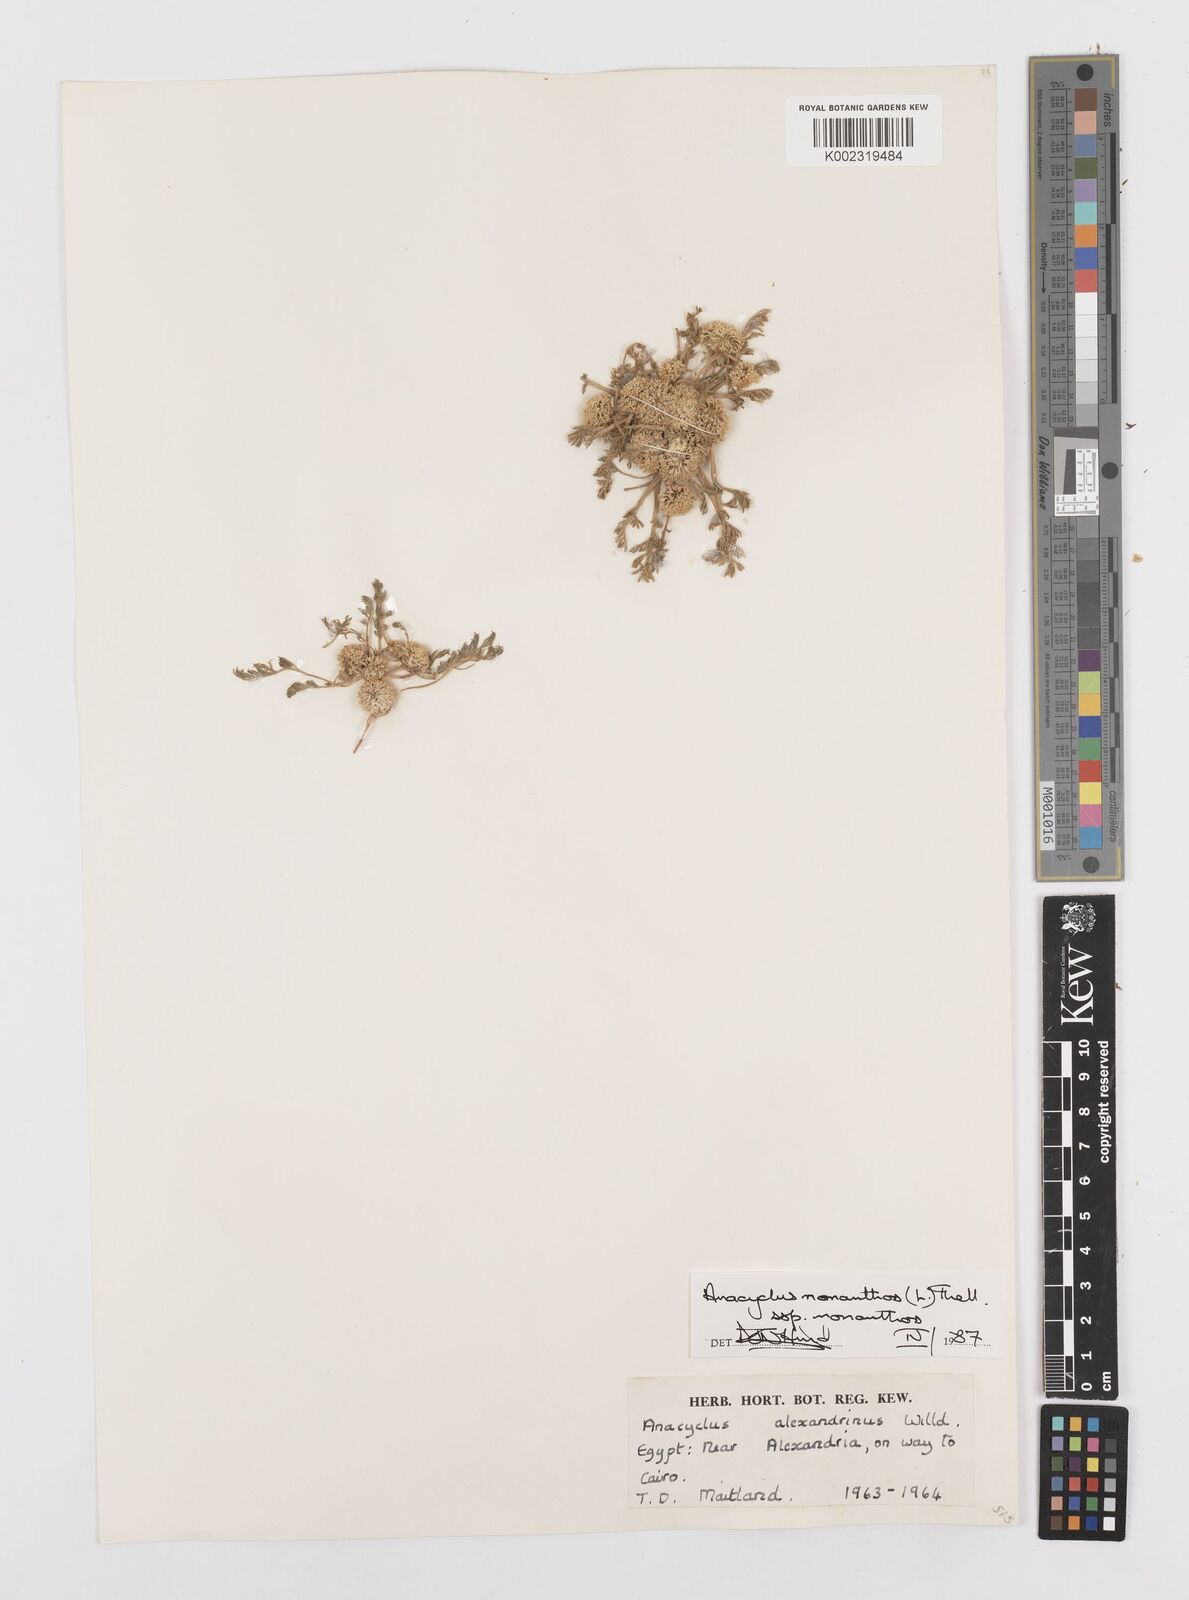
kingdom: Plantae
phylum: Tracheophyta
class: Magnoliopsida
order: Asterales
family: Asteraceae
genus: Anacyclus
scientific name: Anacyclus monanthos
